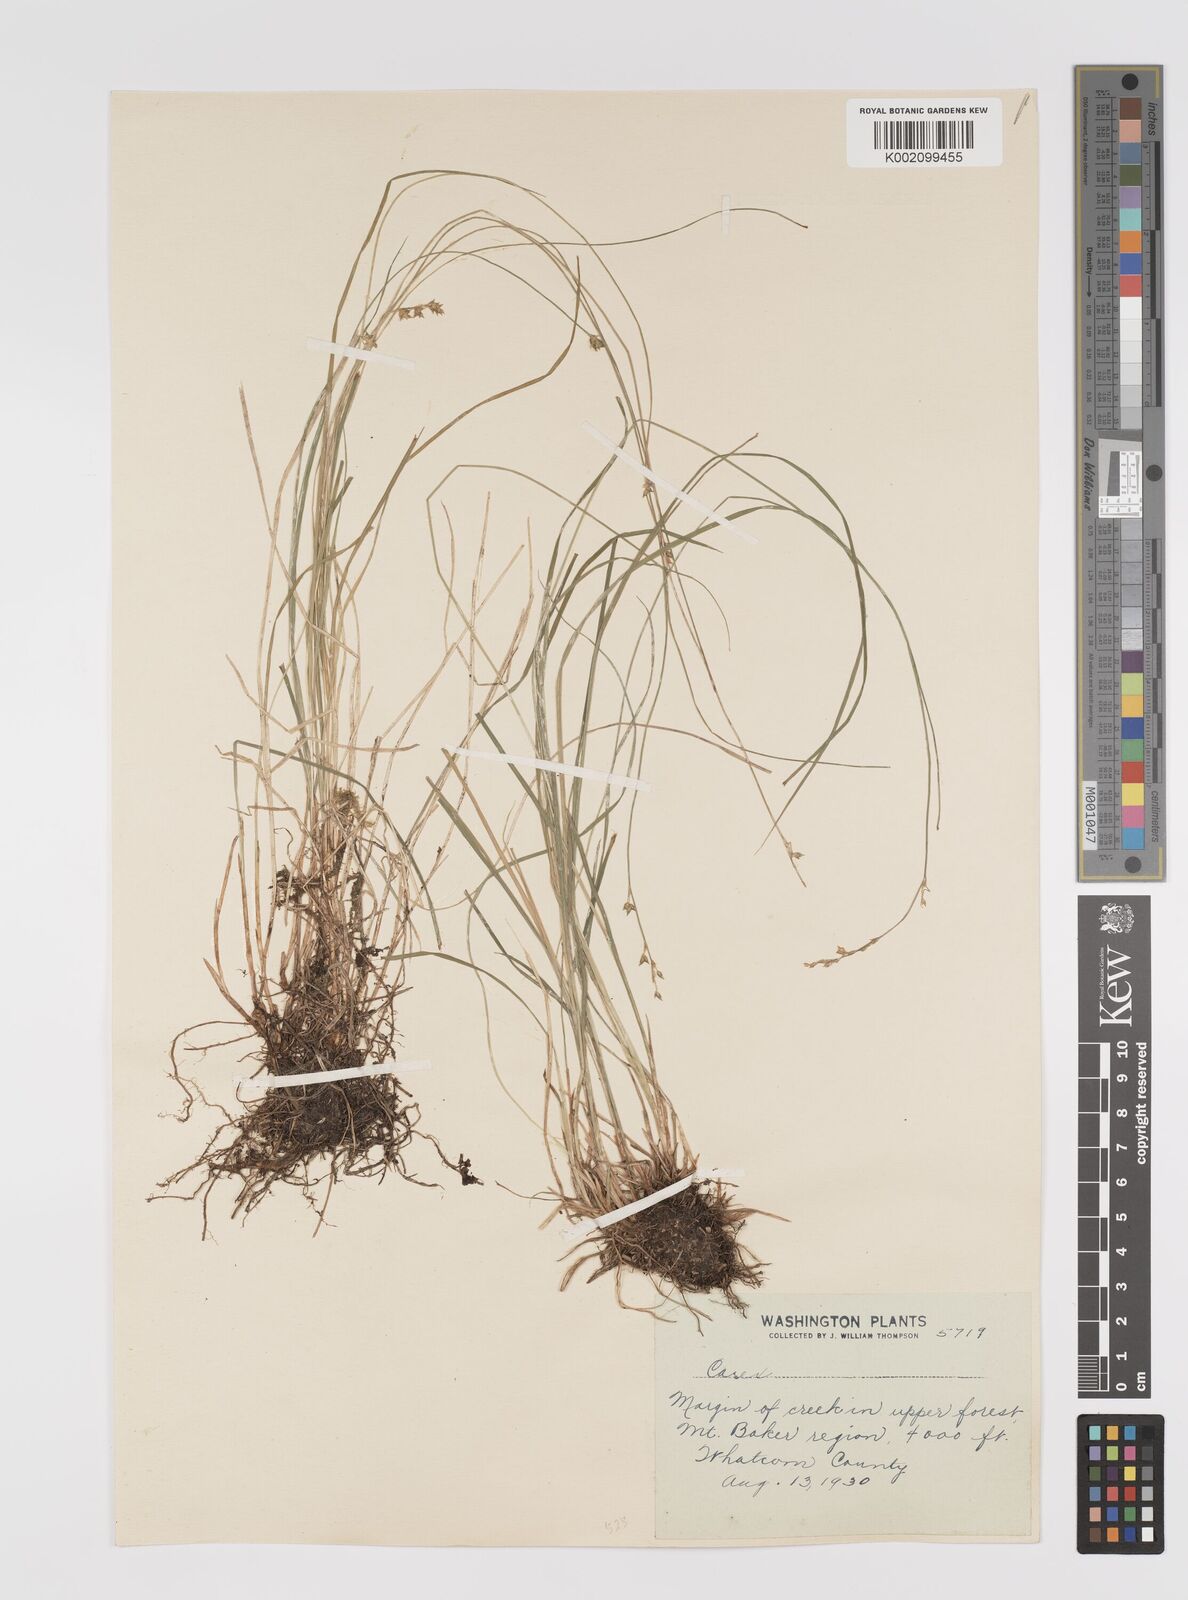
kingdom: Plantae
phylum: Tracheophyta
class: Liliopsida
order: Poales
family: Cyperaceae
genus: Carex
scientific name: Carex trisperma
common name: Three-seeded sedge
